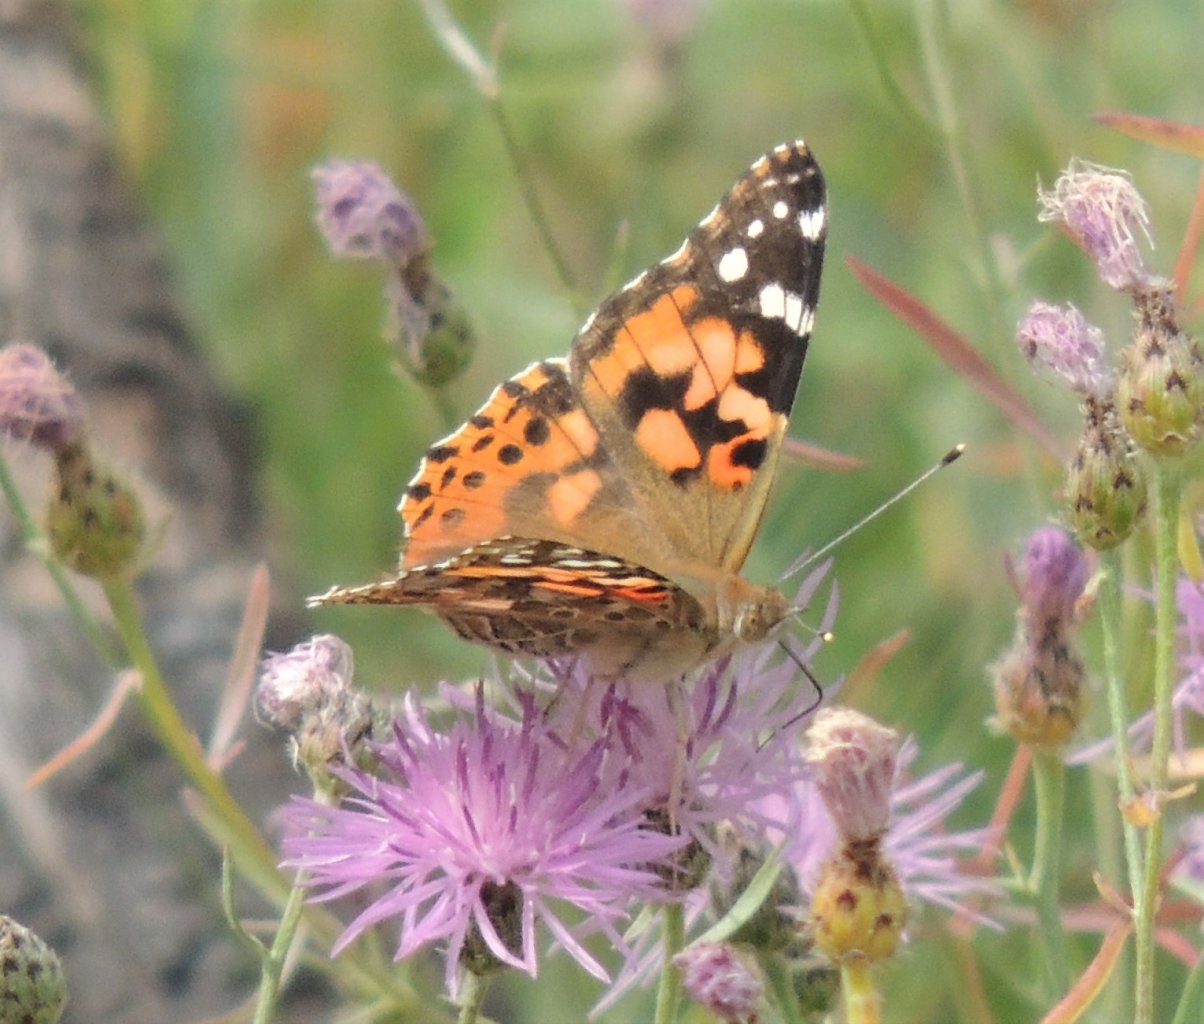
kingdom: Animalia
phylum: Arthropoda
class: Insecta
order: Lepidoptera
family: Nymphalidae
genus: Vanessa
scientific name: Vanessa cardui
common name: Painted Lady
